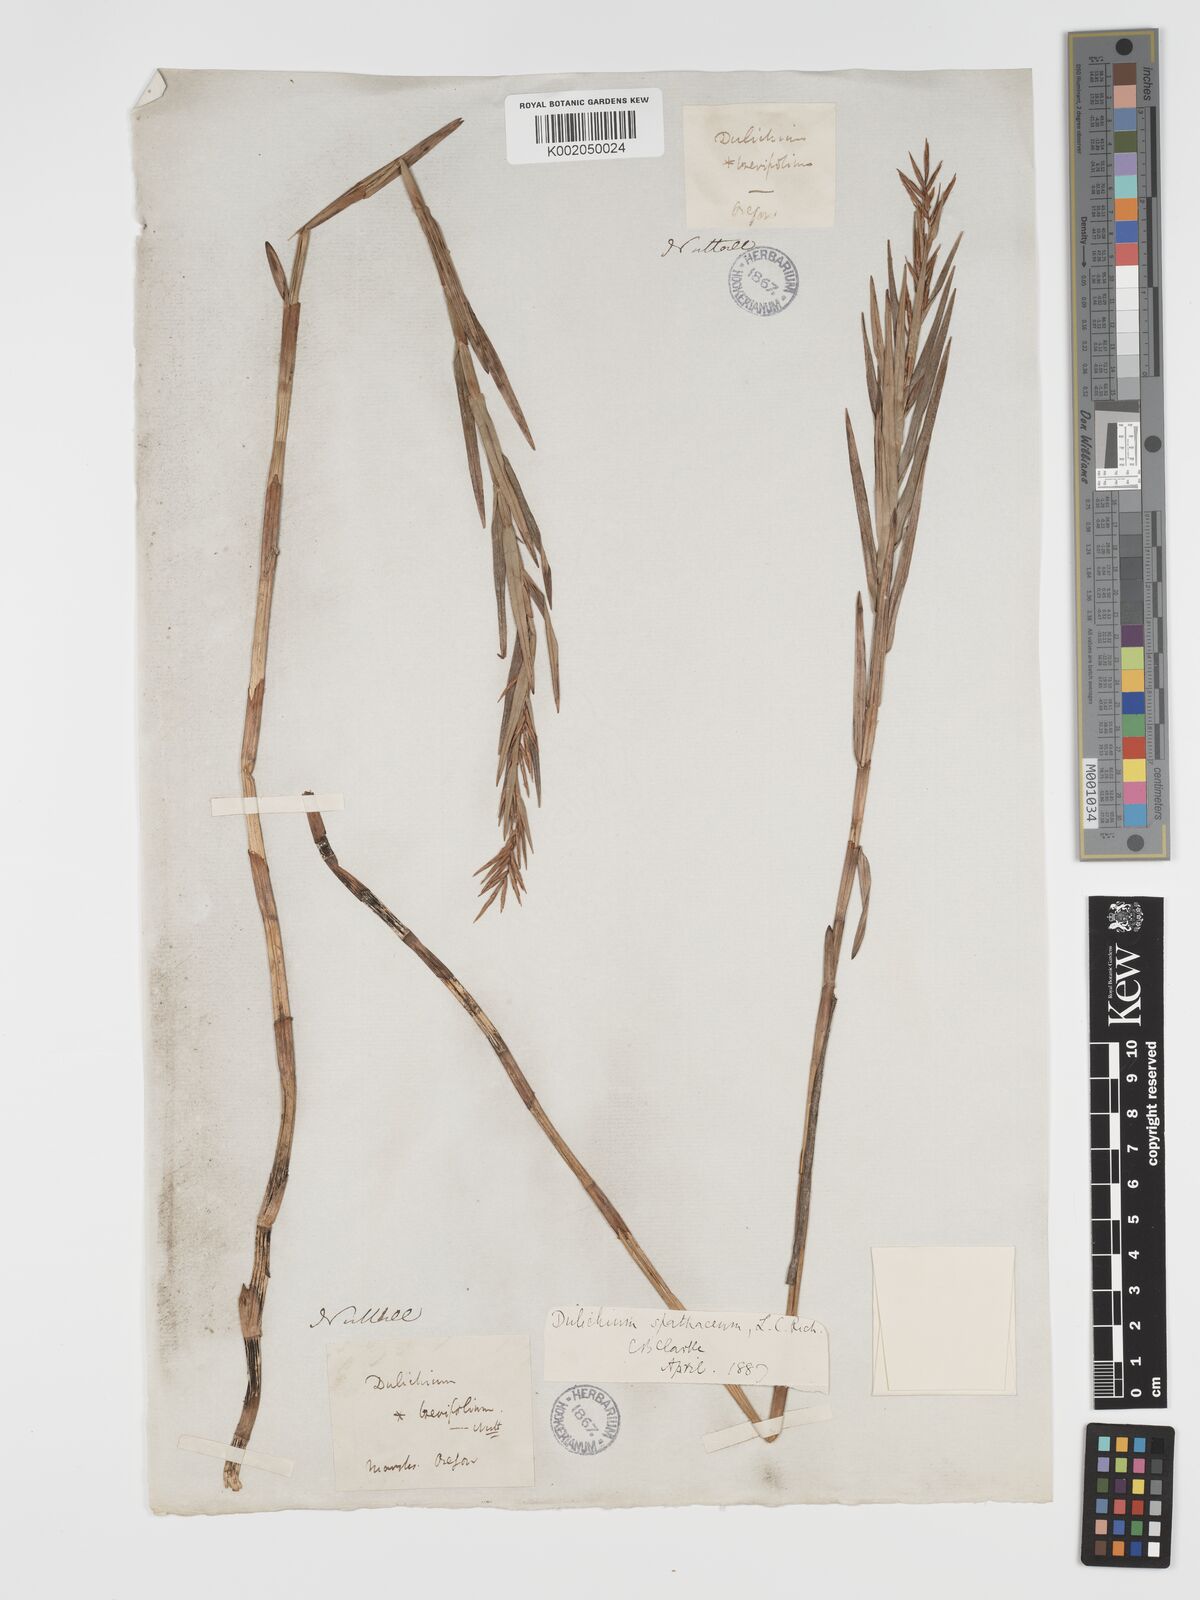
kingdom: Plantae
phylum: Tracheophyta
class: Liliopsida
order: Poales
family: Cyperaceae
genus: Dulichium
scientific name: Dulichium arundinaceum
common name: Three-way sedge
